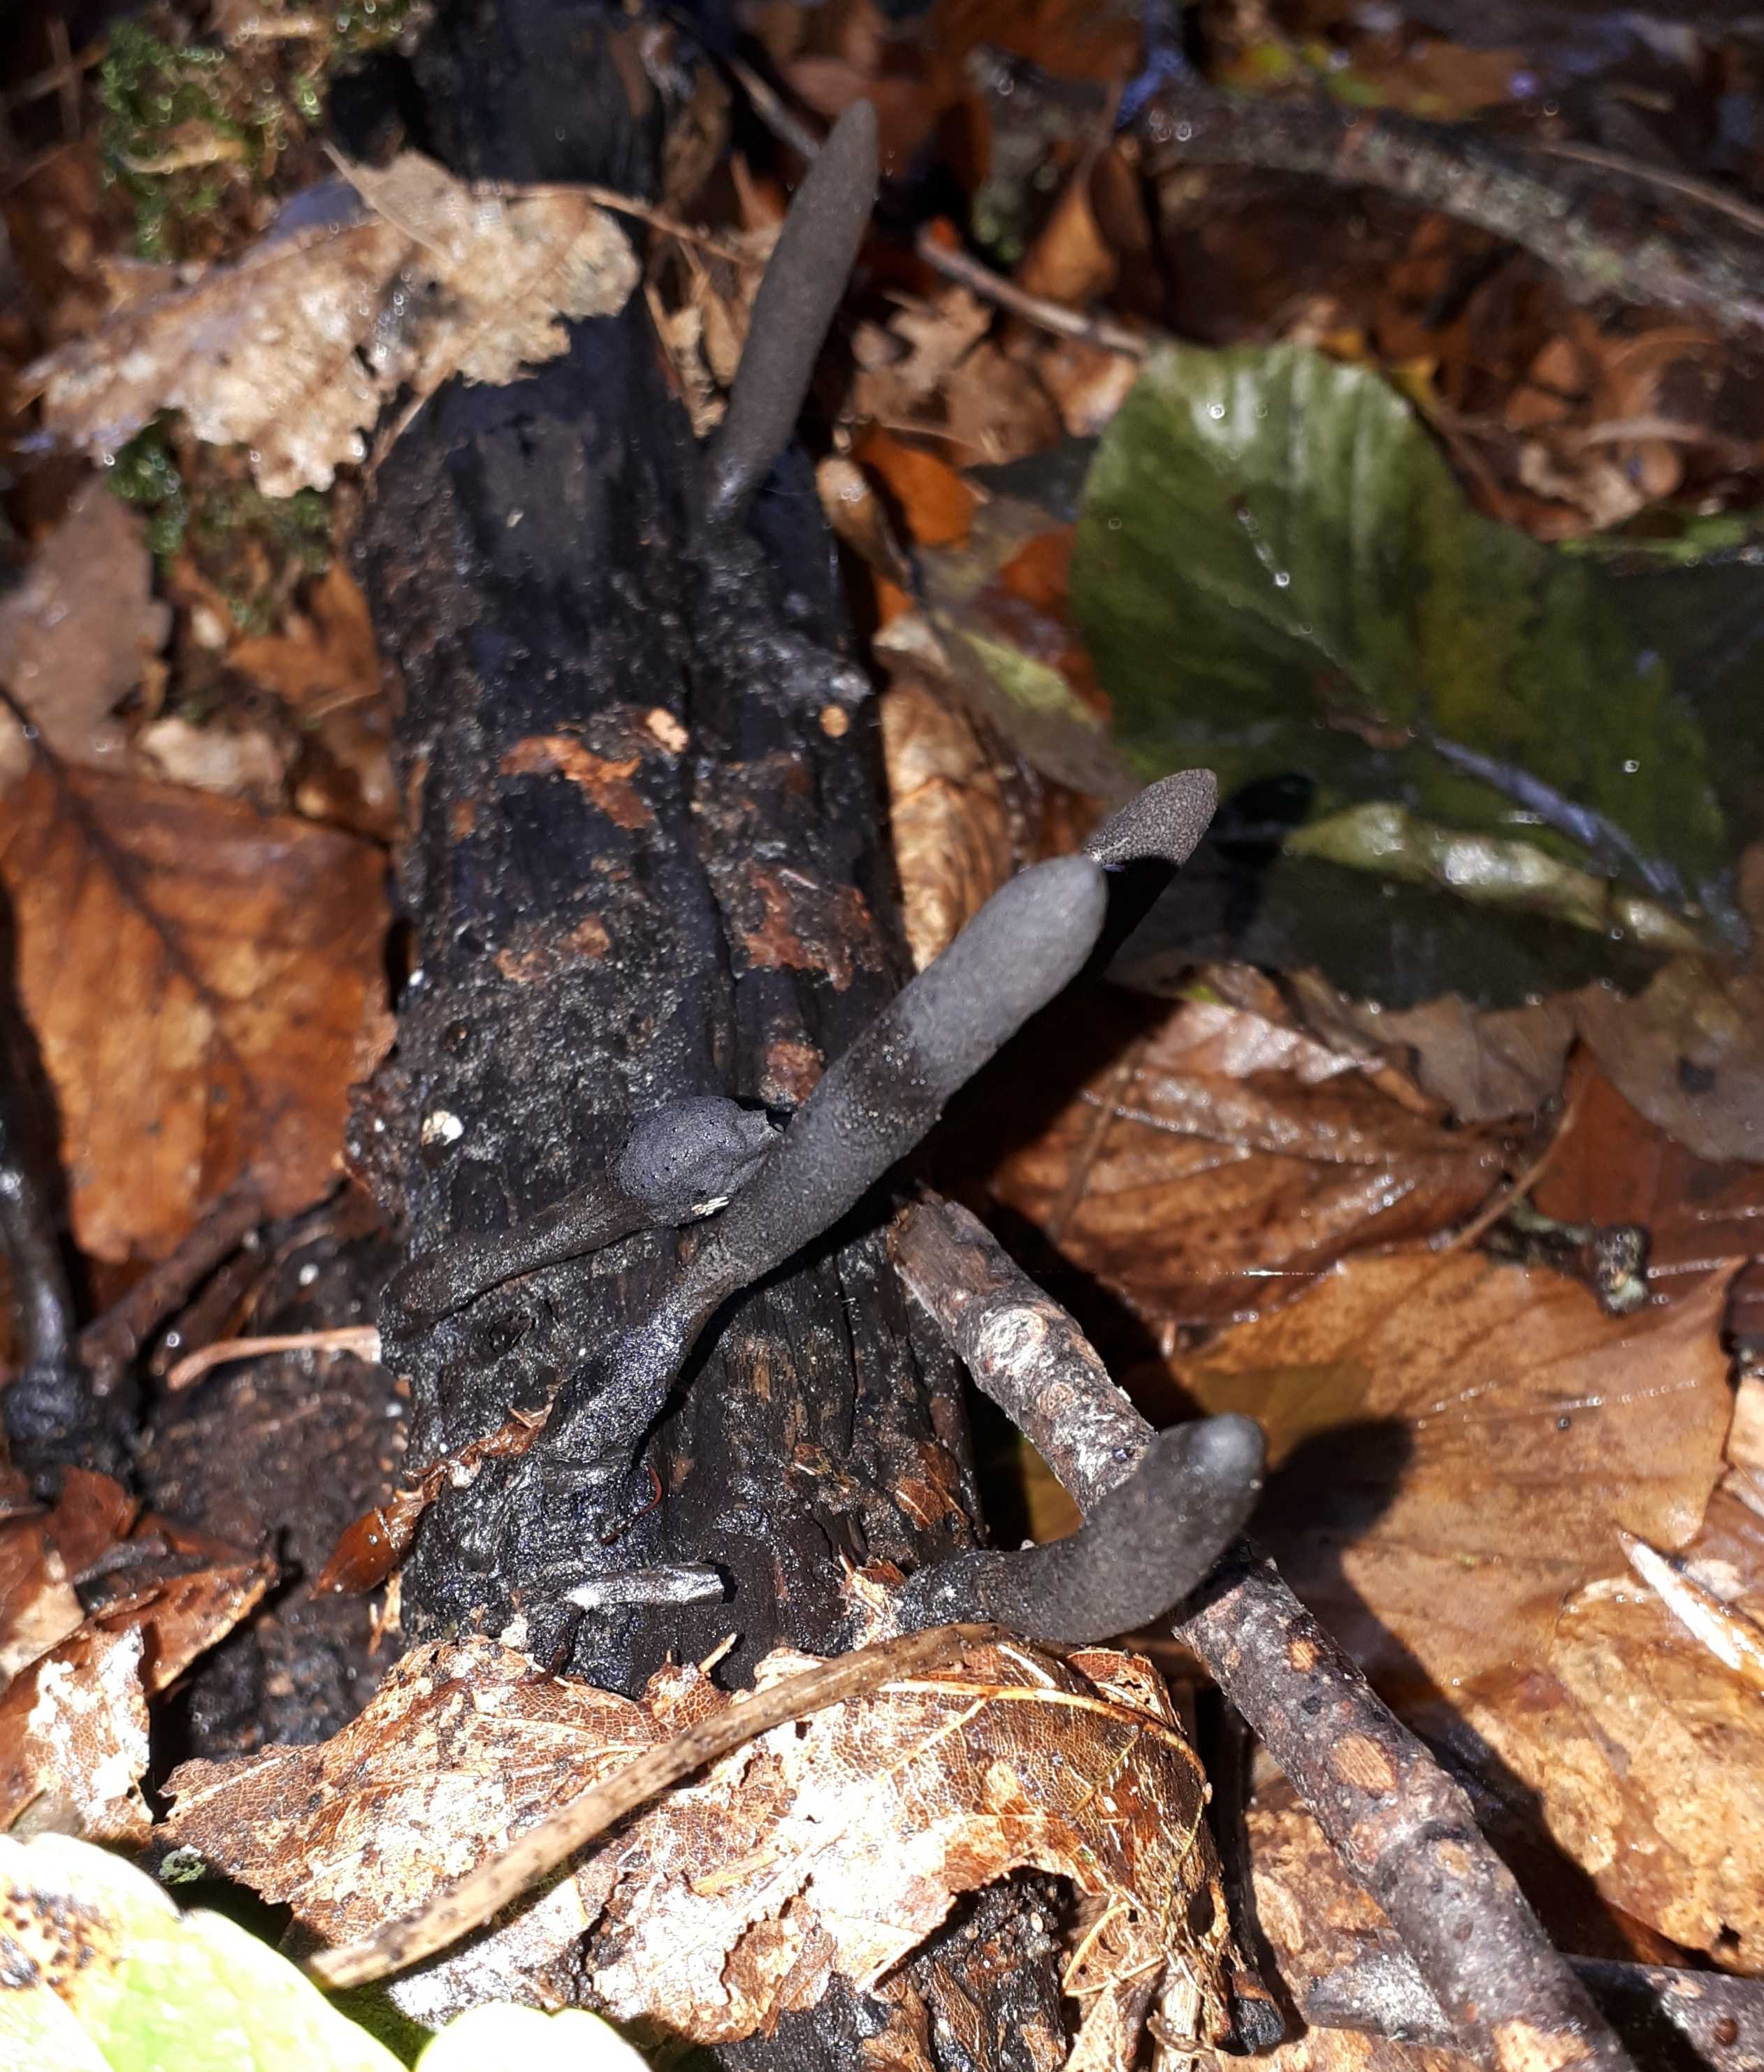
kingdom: Fungi
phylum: Ascomycota
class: Sordariomycetes
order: Xylariales
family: Xylariaceae
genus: Xylaria
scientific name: Xylaria longipes
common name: slank stødsvamp
